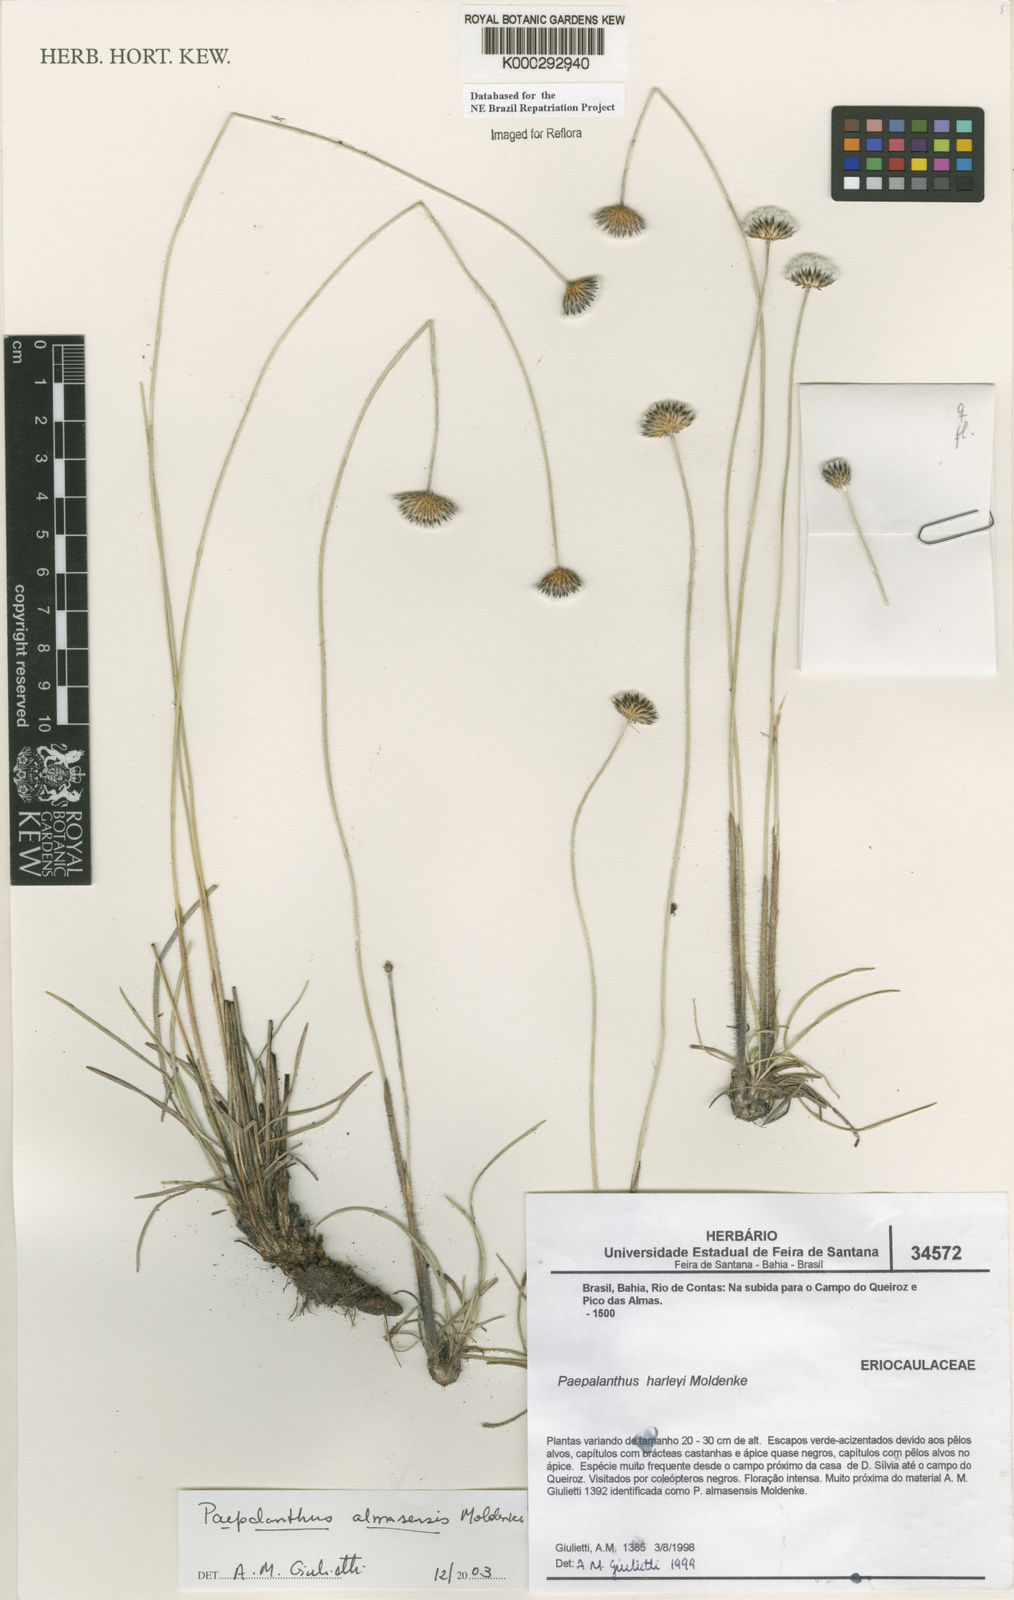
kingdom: Plantae
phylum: Tracheophyta
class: Liliopsida
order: Poales
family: Eriocaulaceae
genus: Paepalanthus
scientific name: Paepalanthus almasensis
